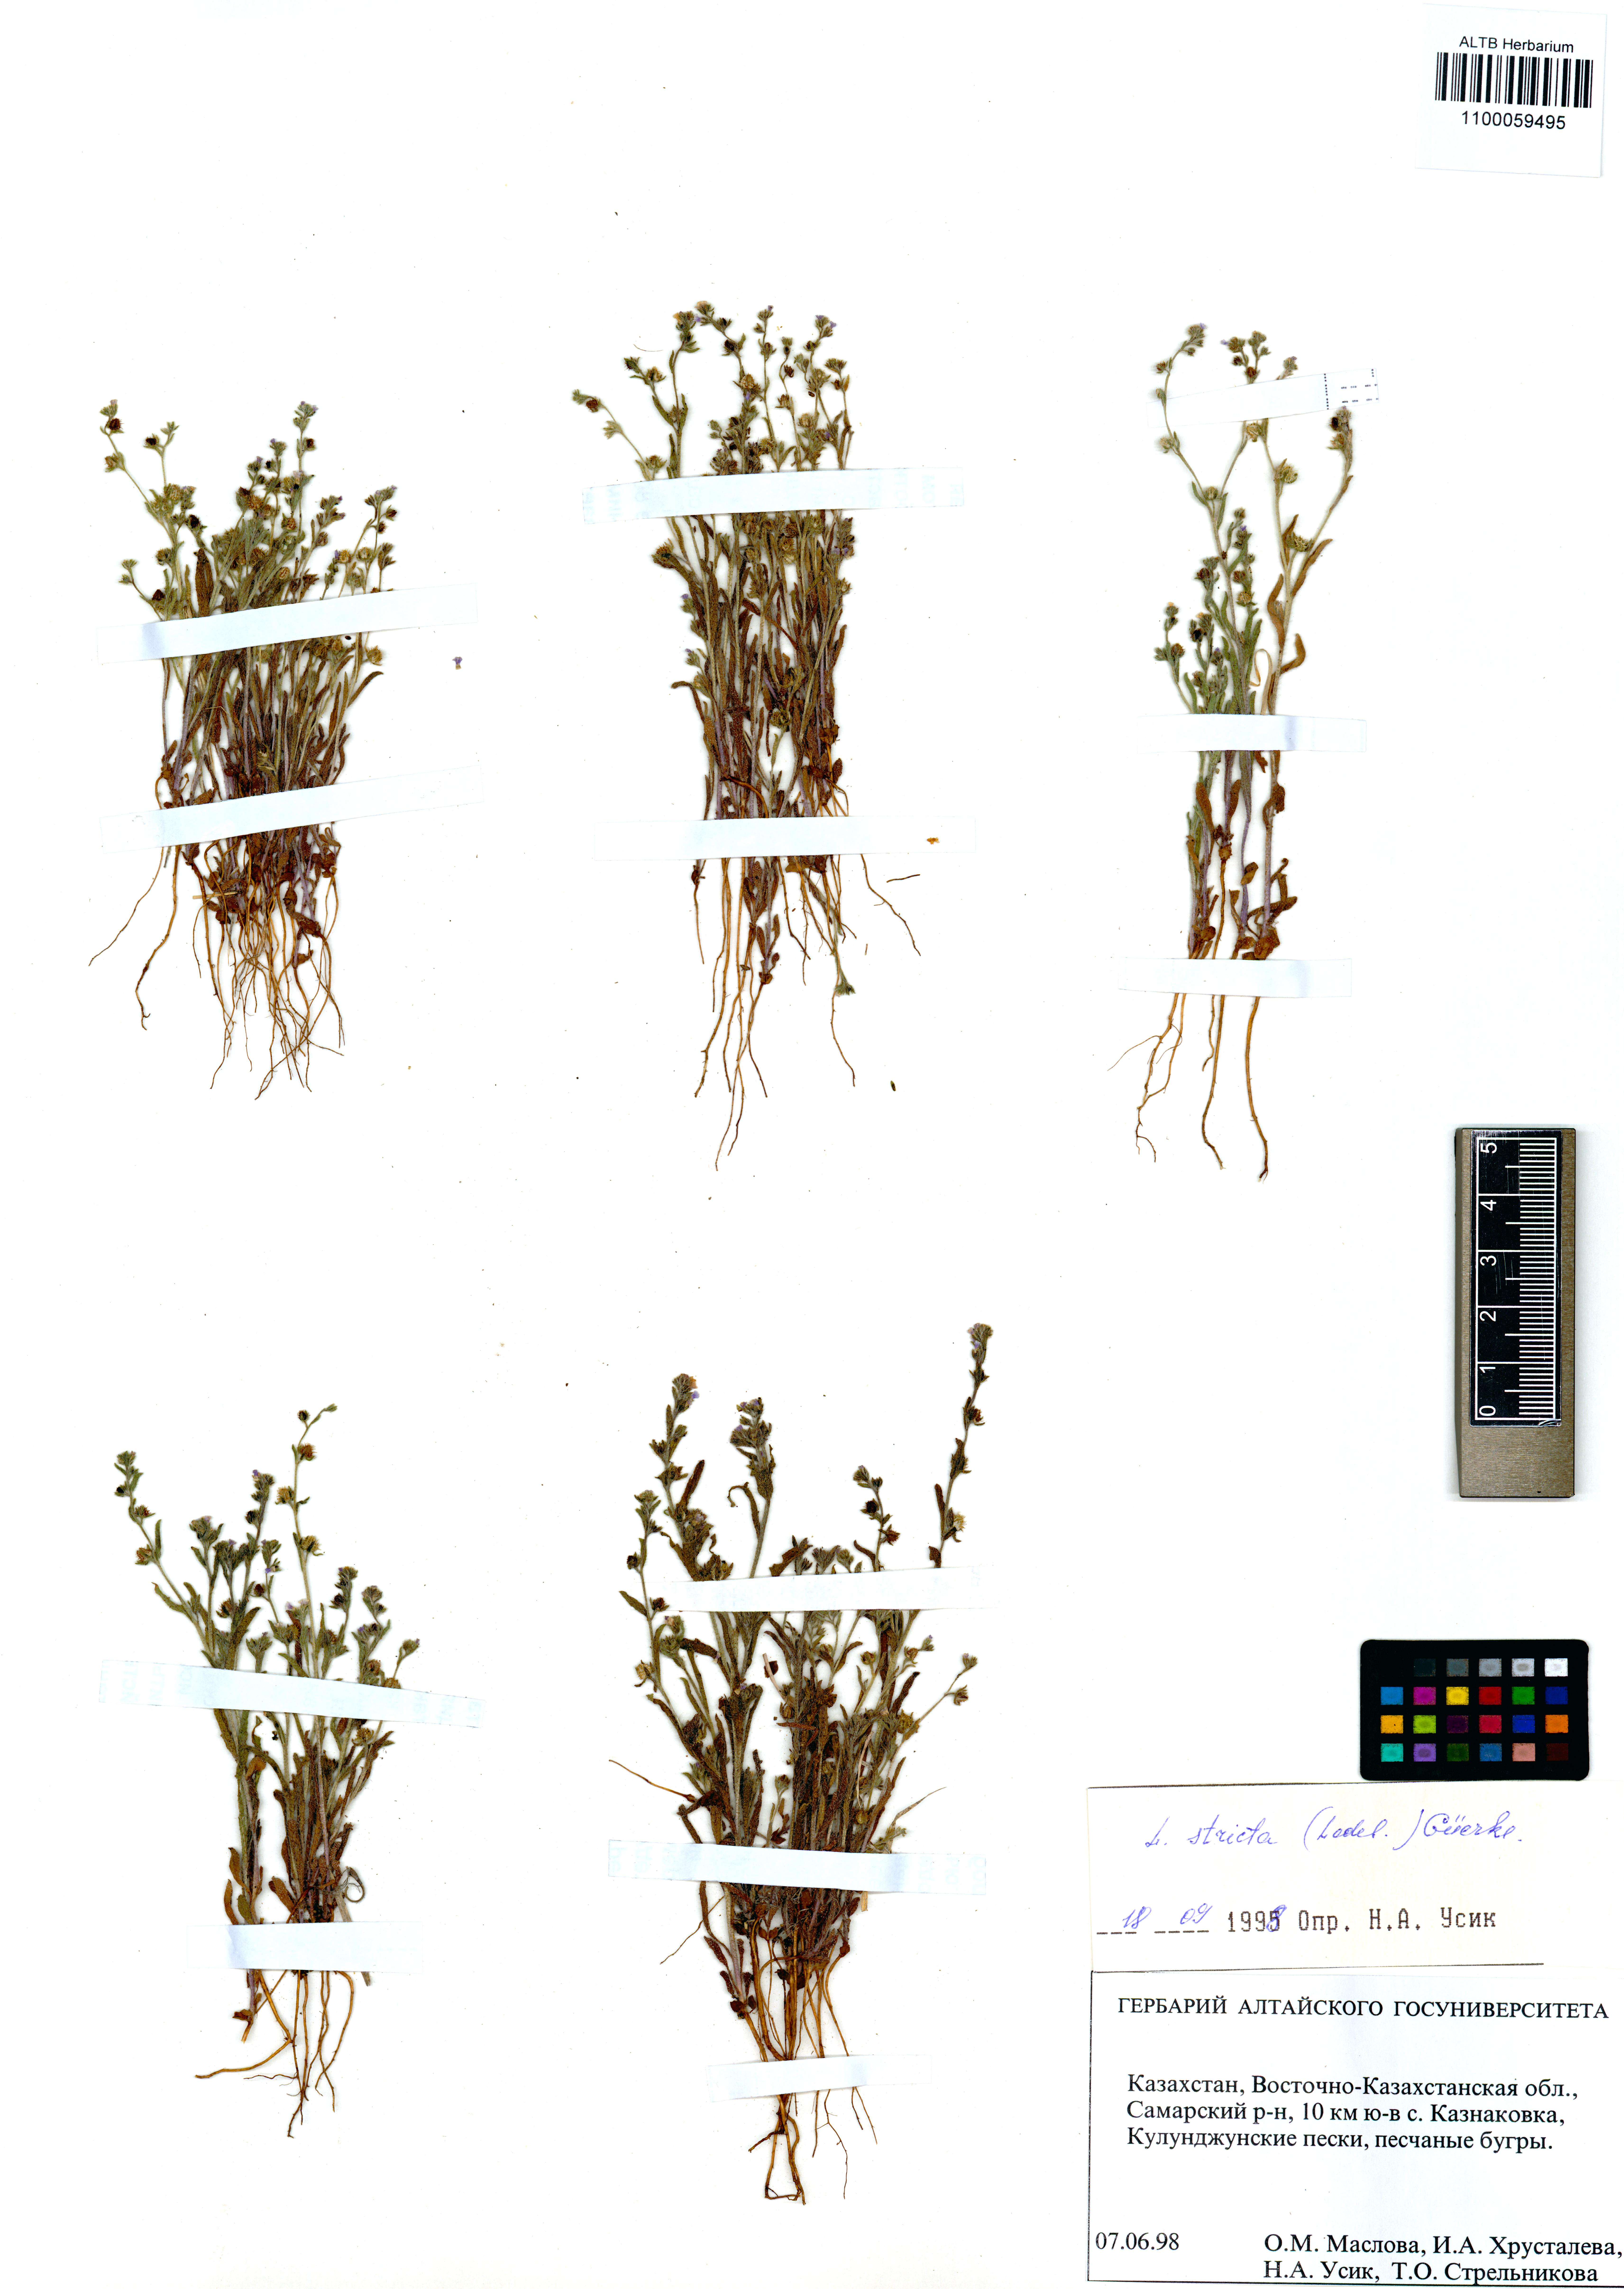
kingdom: Plantae
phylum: Tracheophyta
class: Magnoliopsida
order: Boraginales
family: Boraginaceae
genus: Lappula
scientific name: Lappula stricta
